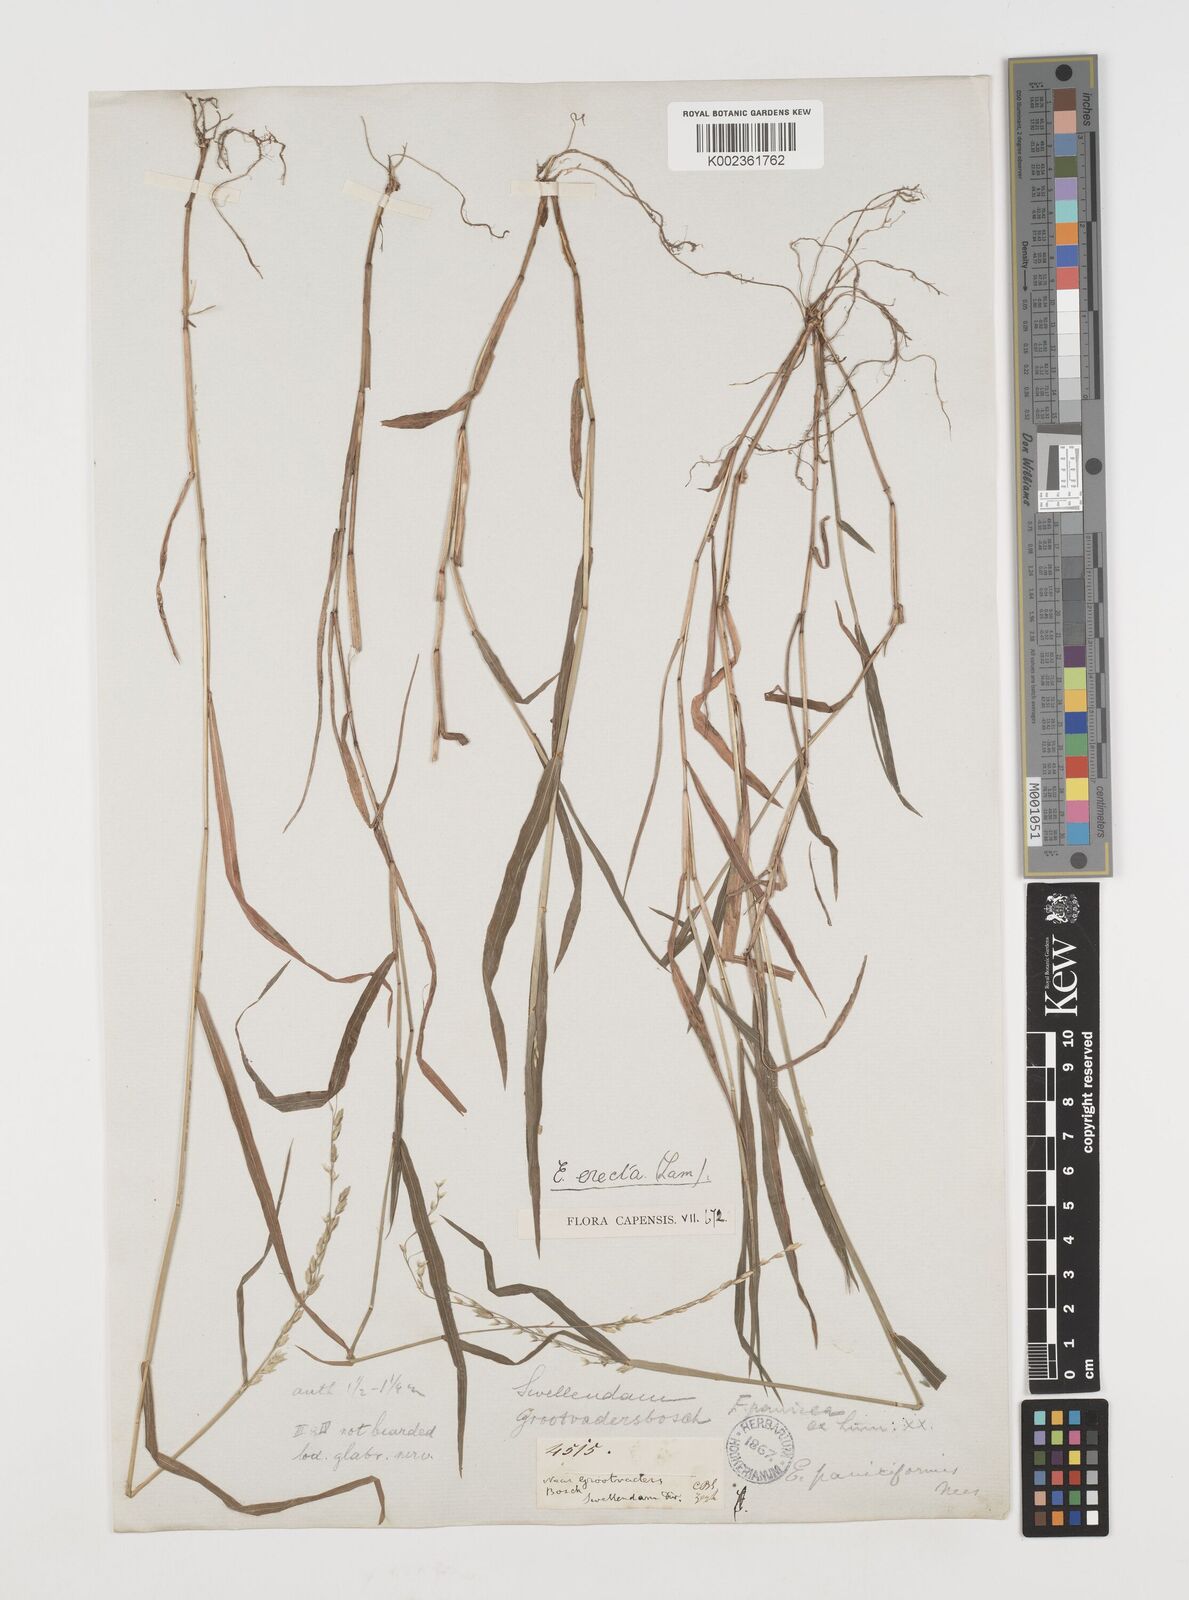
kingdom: Plantae
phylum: Tracheophyta
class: Liliopsida
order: Poales
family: Poaceae
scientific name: Poaceae
